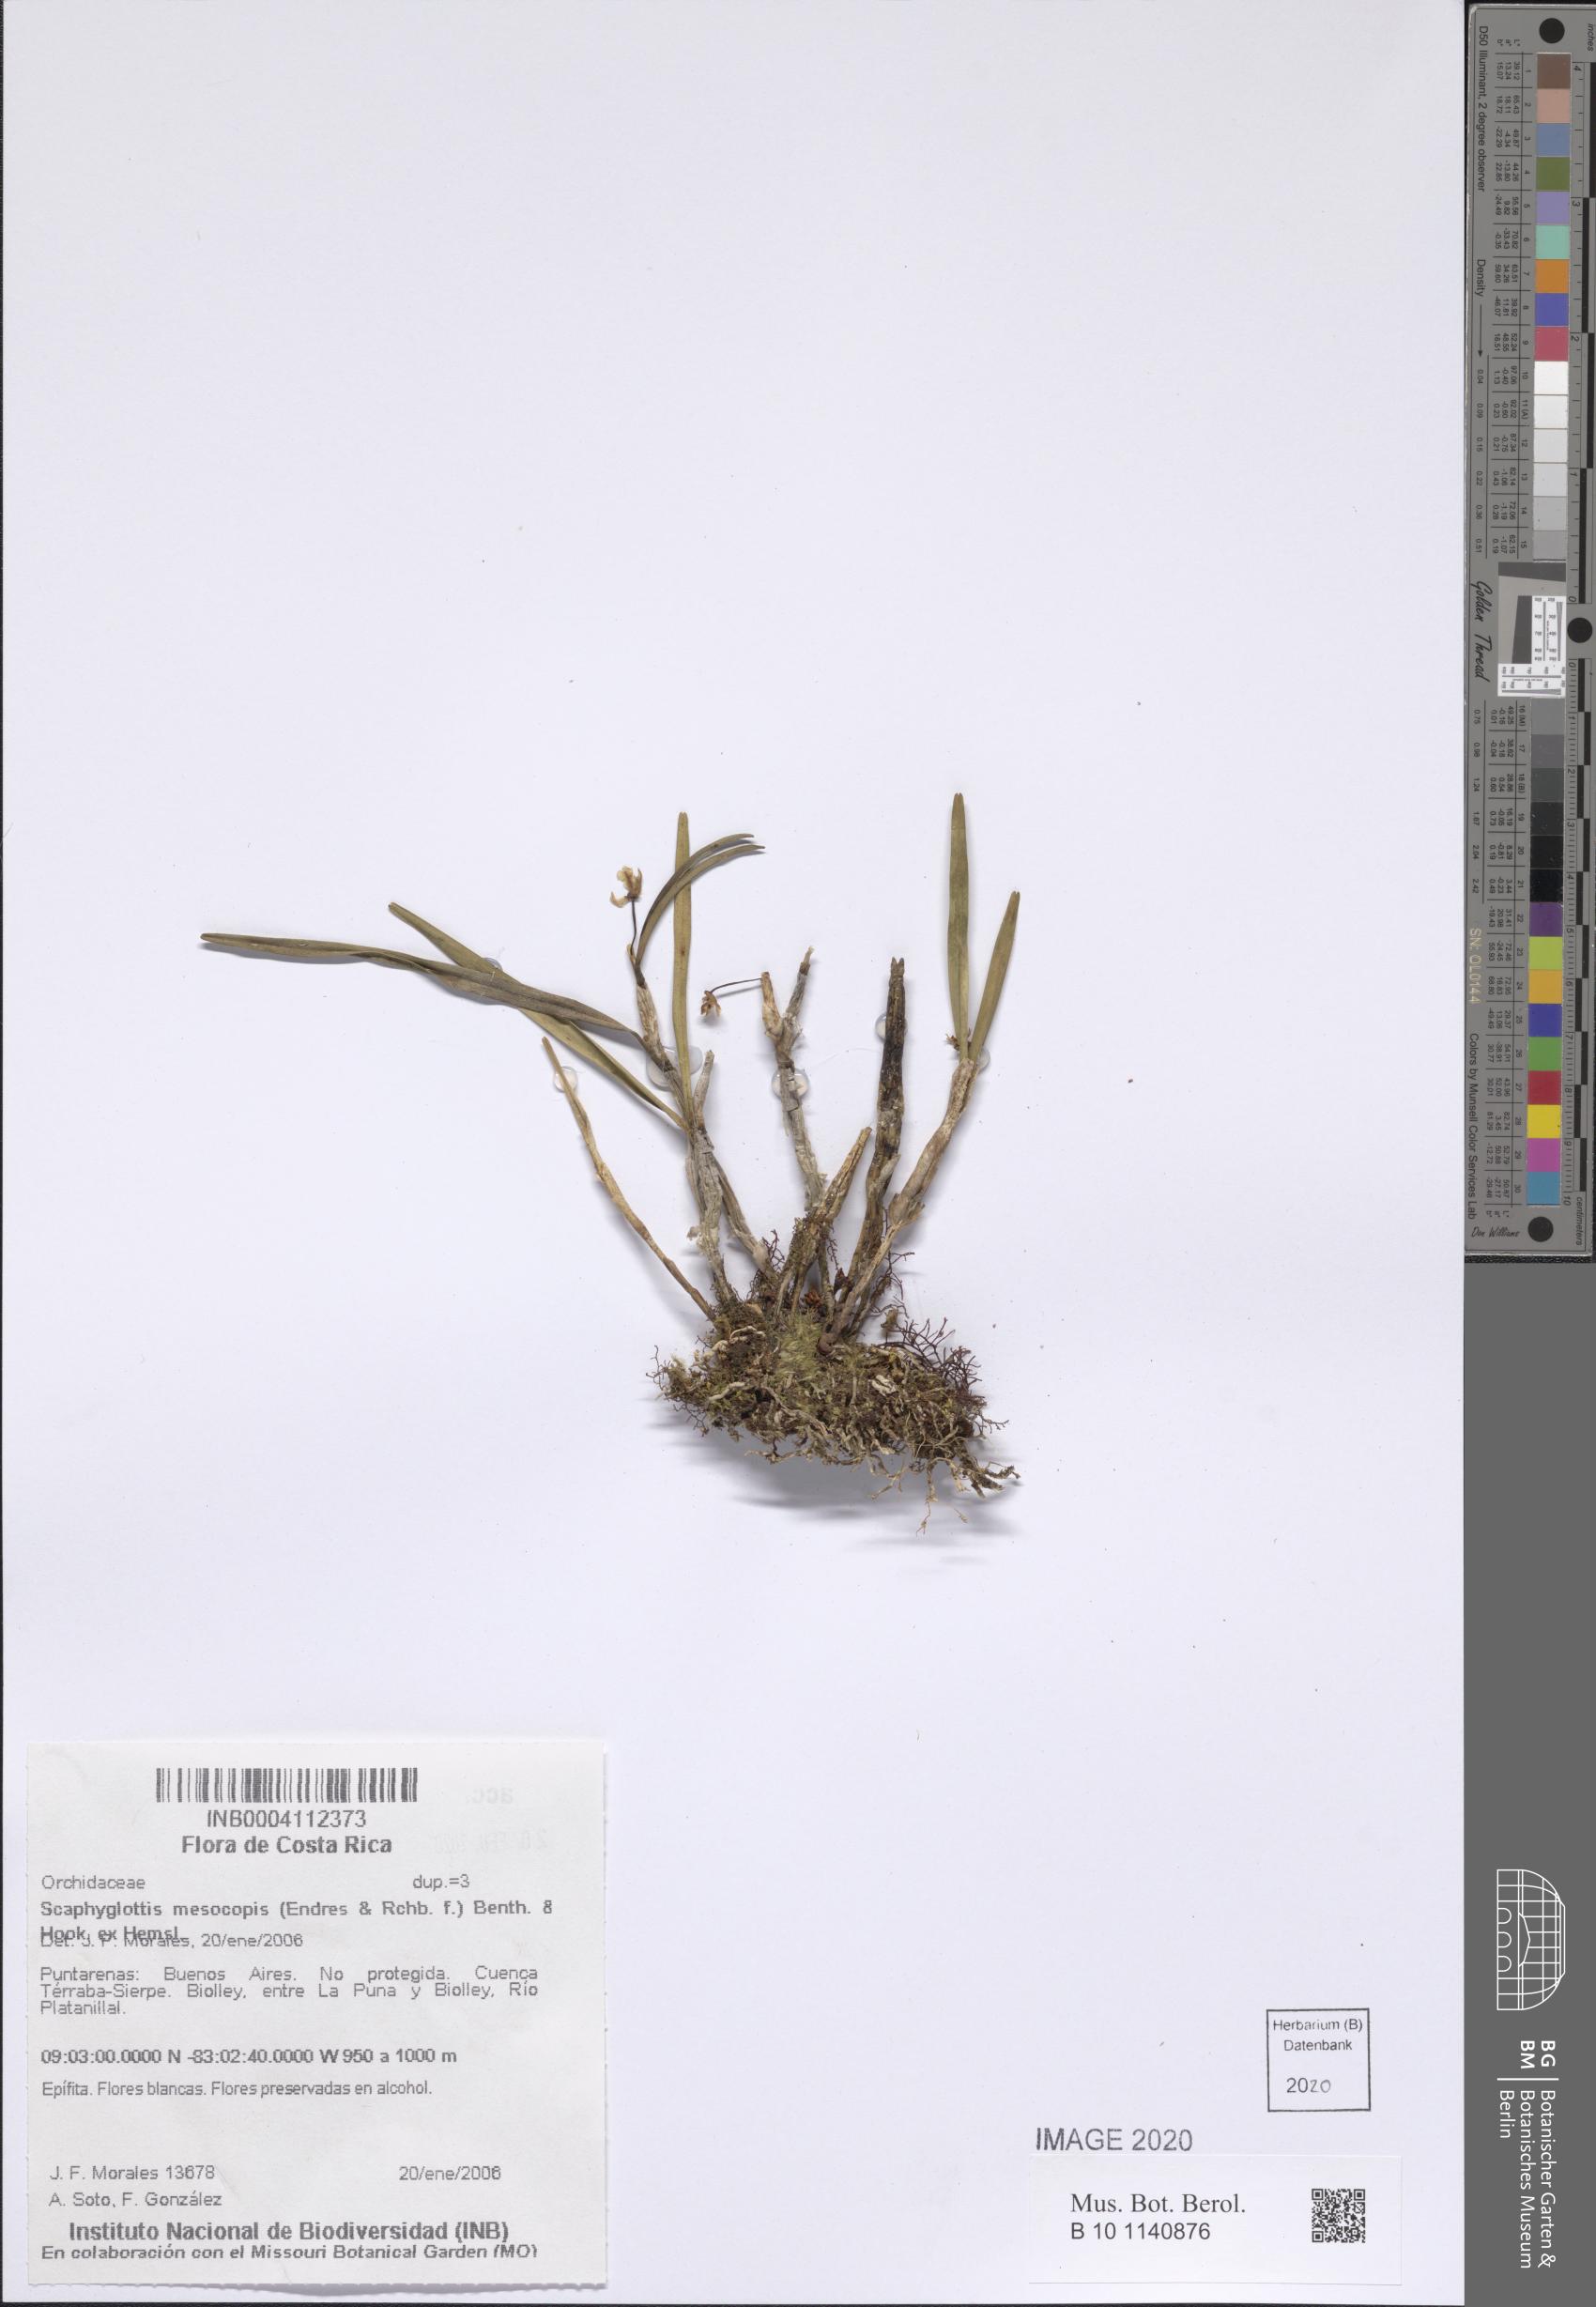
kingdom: Plantae
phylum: Tracheophyta
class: Liliopsida
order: Asparagales
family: Orchidaceae
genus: Scaphyglottis
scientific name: Scaphyglottis mesocopis
